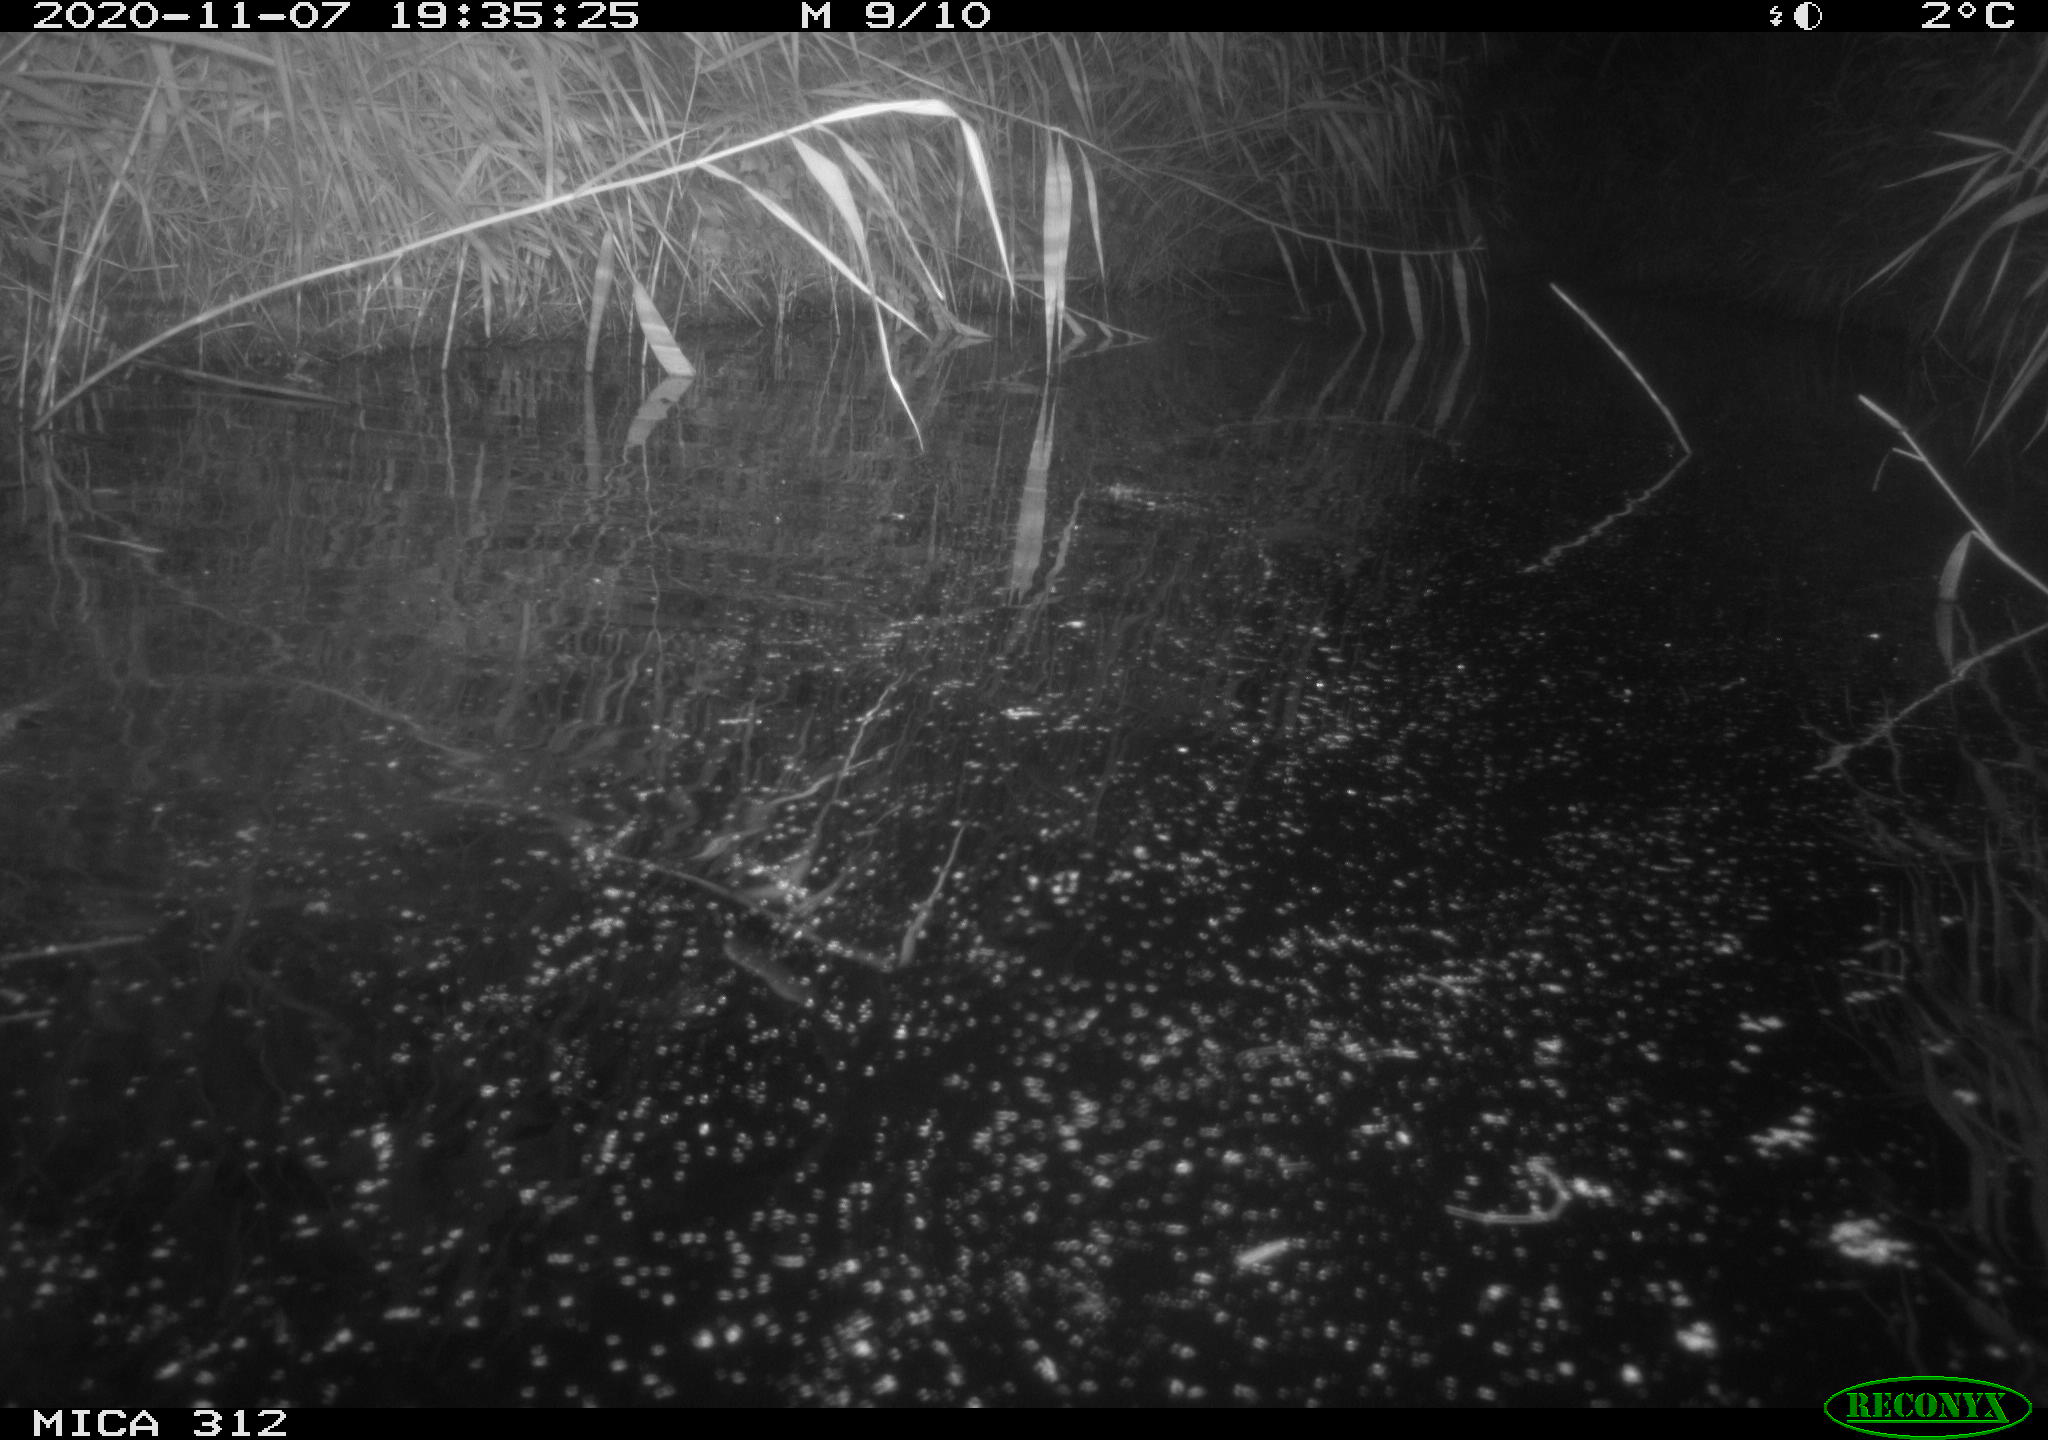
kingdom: Animalia
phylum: Chordata
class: Mammalia
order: Rodentia
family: Muridae
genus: Rattus
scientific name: Rattus norvegicus
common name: Brown rat
